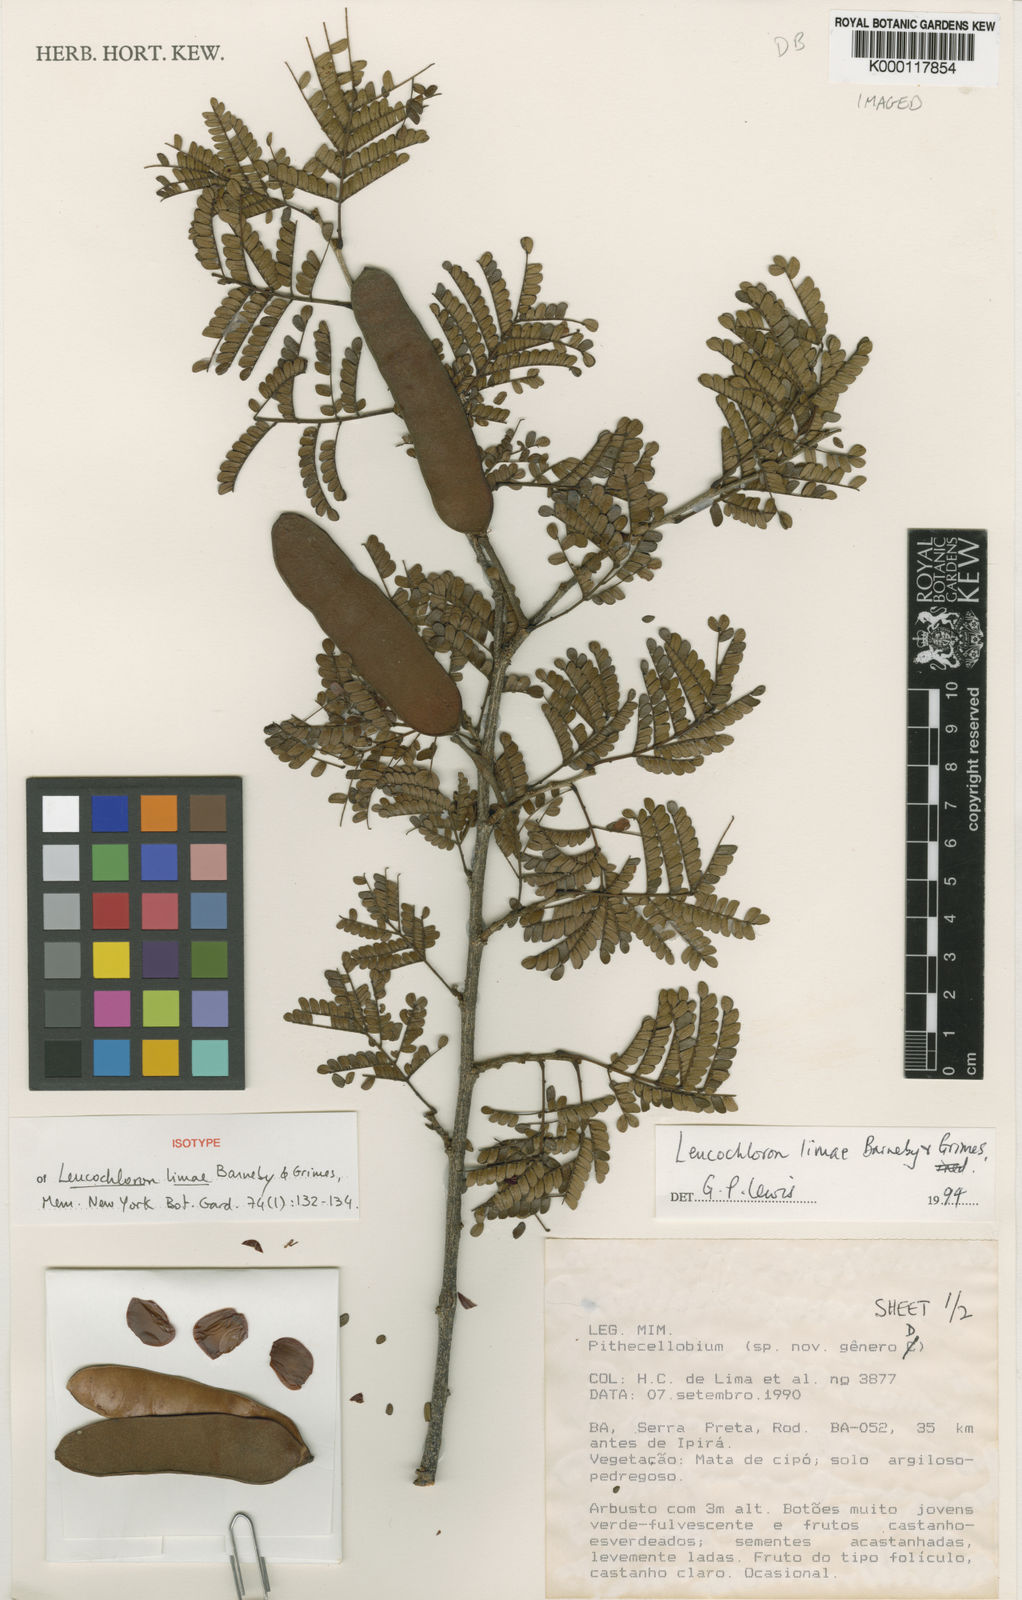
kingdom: Plantae
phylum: Tracheophyta
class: Magnoliopsida
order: Fabales
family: Fabaceae
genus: Leucochloron
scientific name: Leucochloron limae
